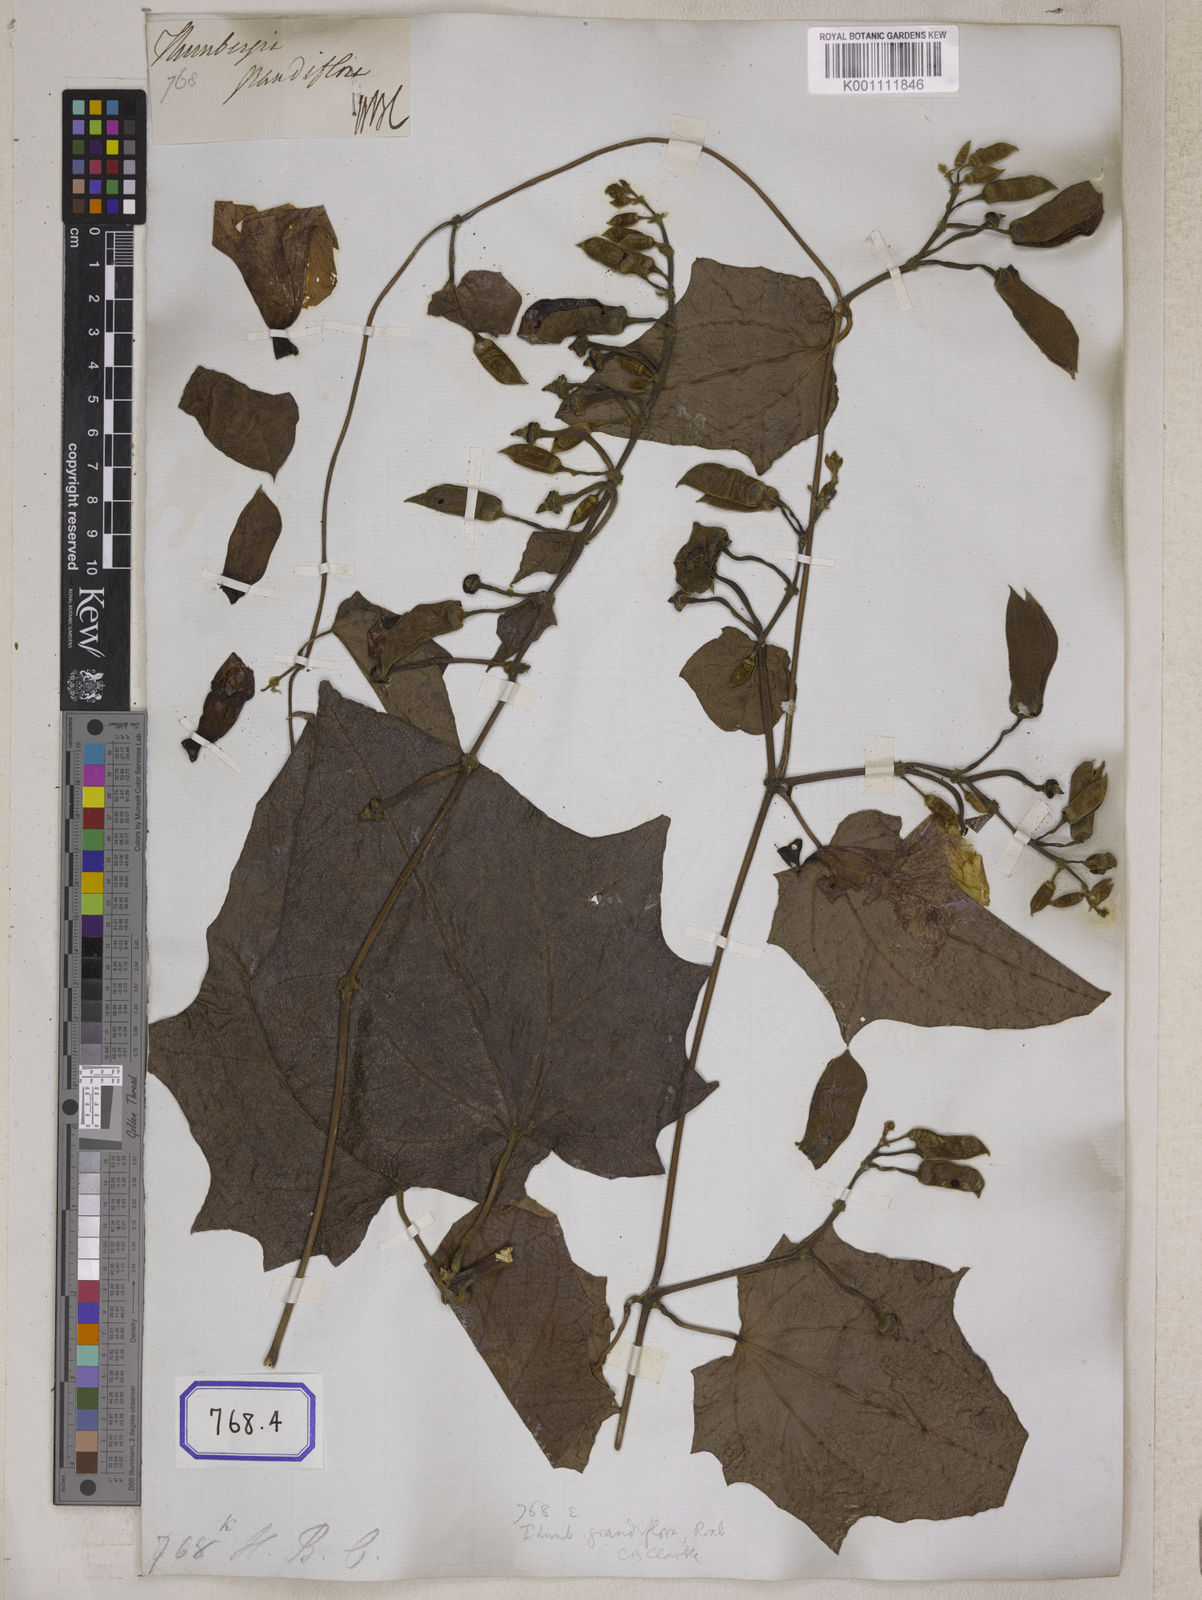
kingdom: Plantae
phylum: Tracheophyta
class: Magnoliopsida
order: Lamiales
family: Acanthaceae
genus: Thunbergia
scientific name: Thunbergia grandiflora
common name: Bengal trumpet
